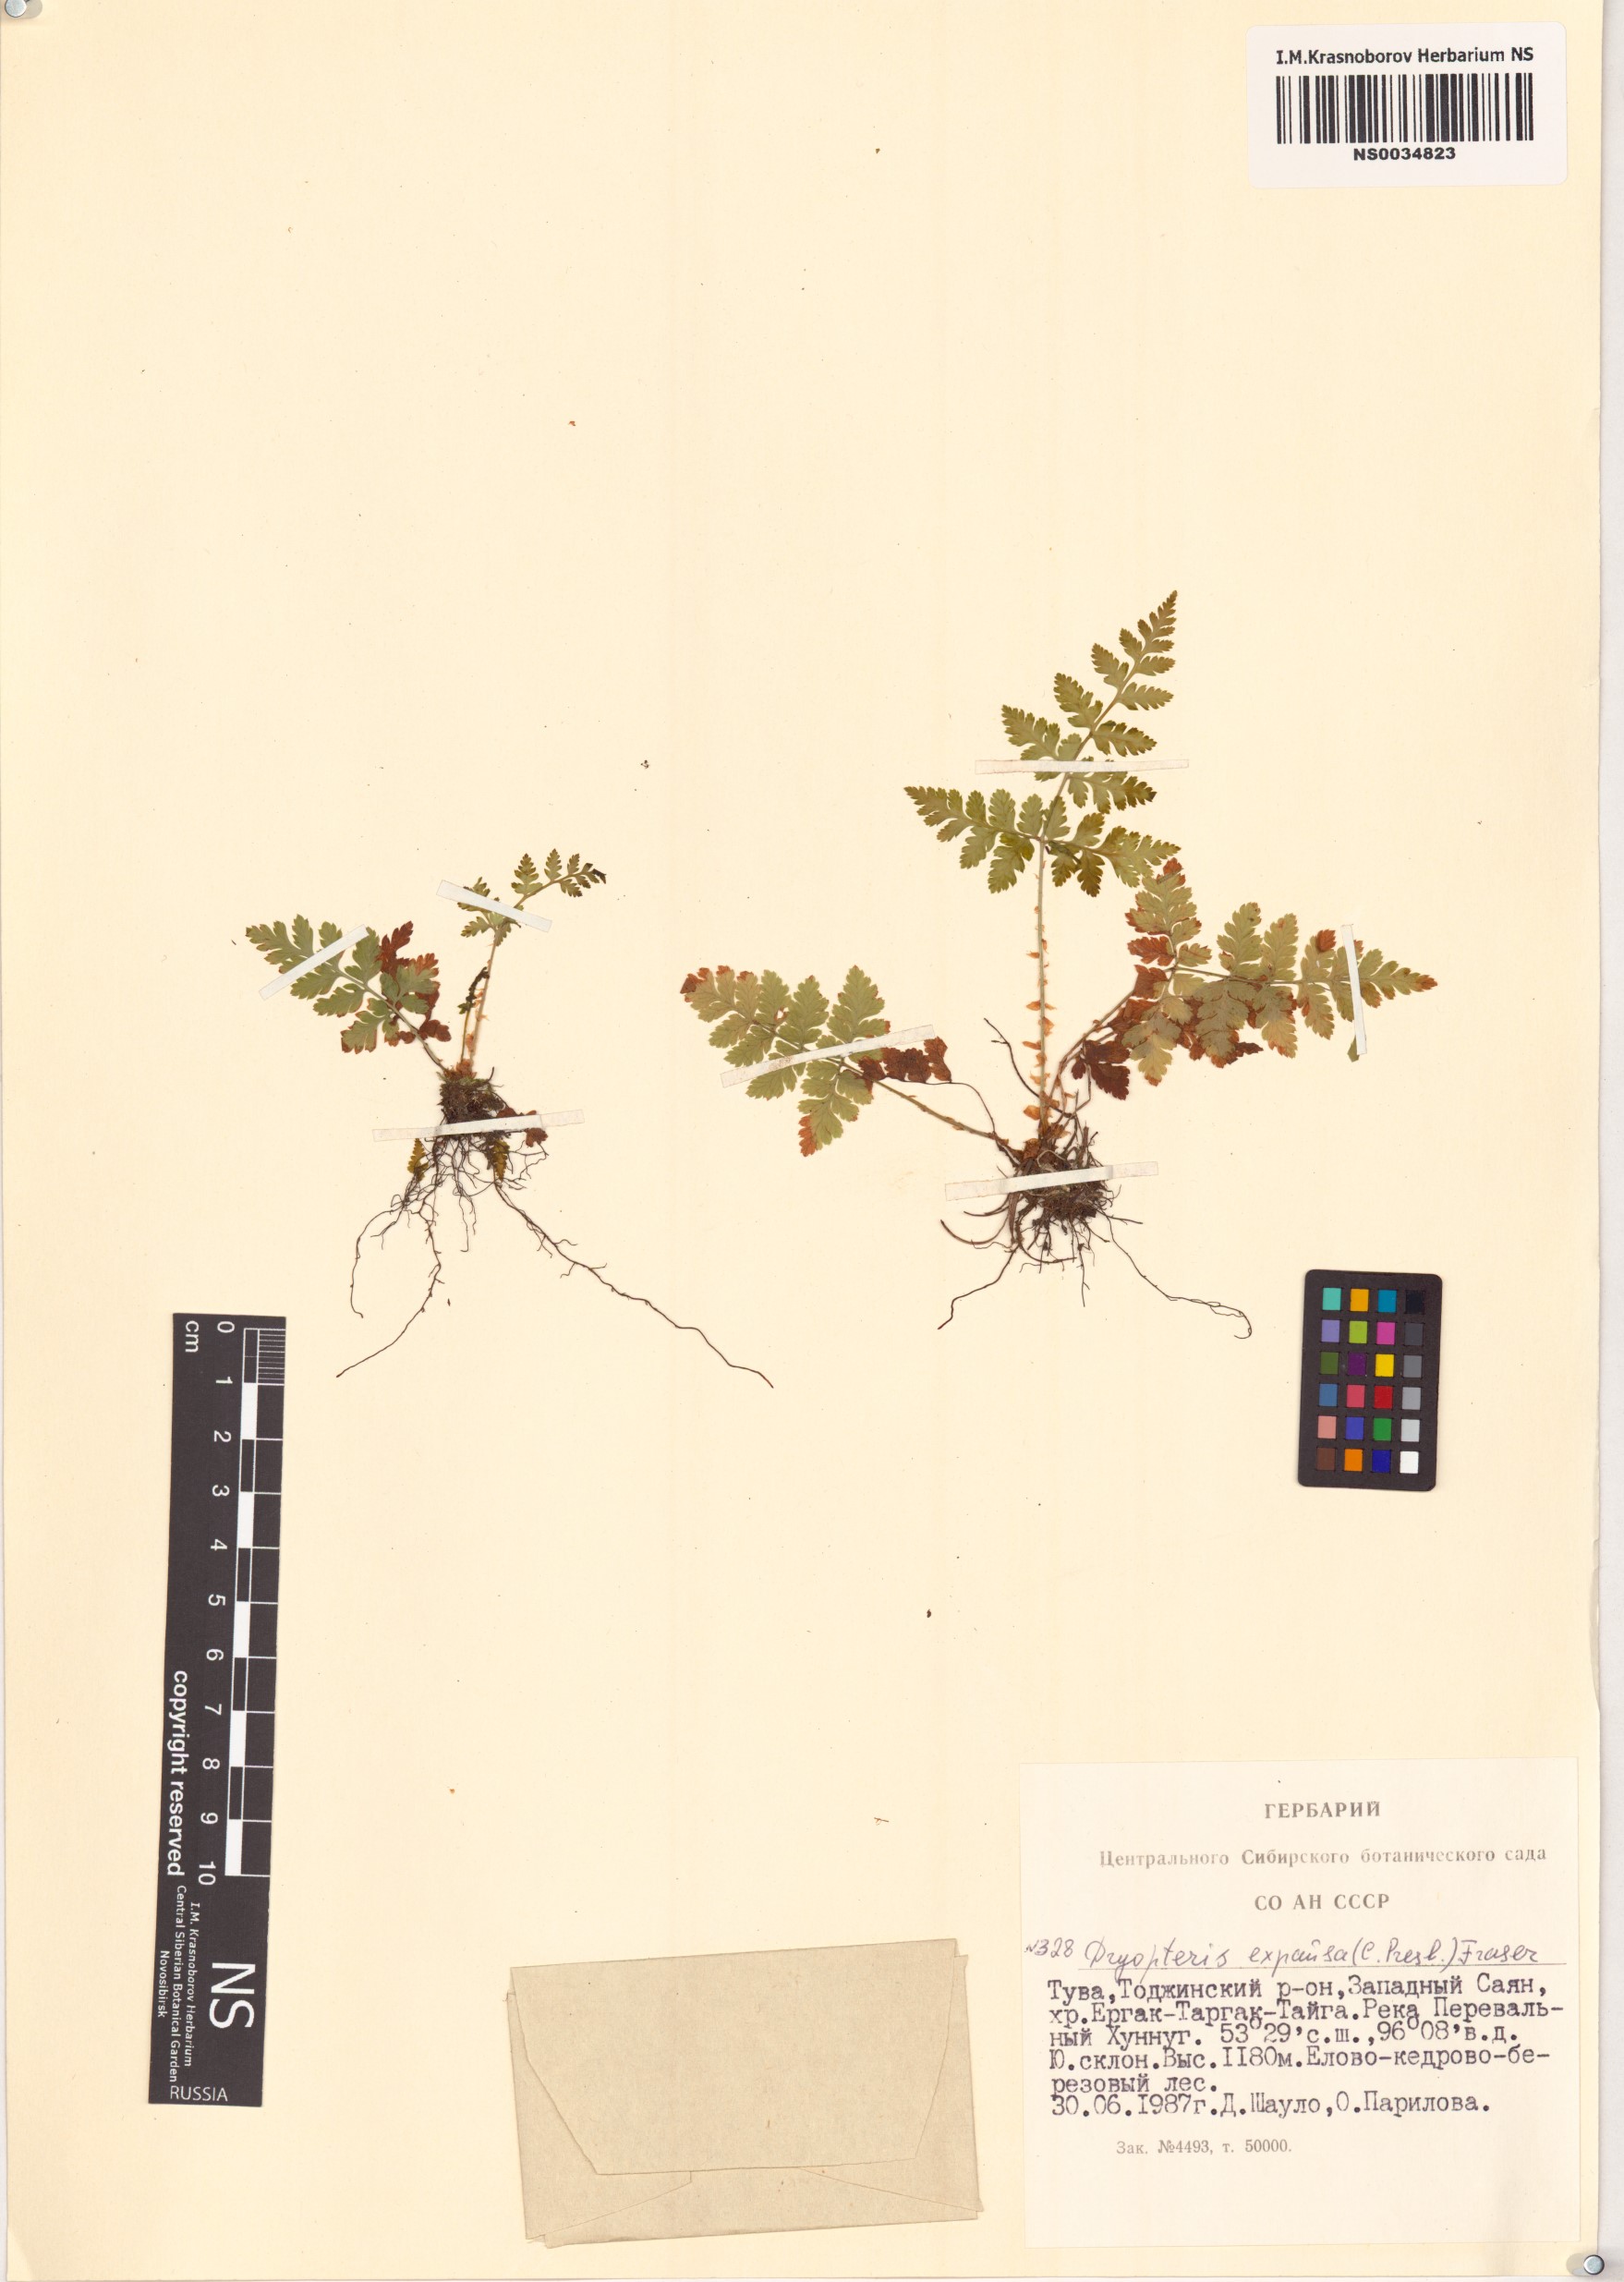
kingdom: Plantae
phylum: Tracheophyta
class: Polypodiopsida
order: Polypodiales
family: Dryopteridaceae
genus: Dryopteris
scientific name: Dryopteris expansa
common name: Northern buckler fern
